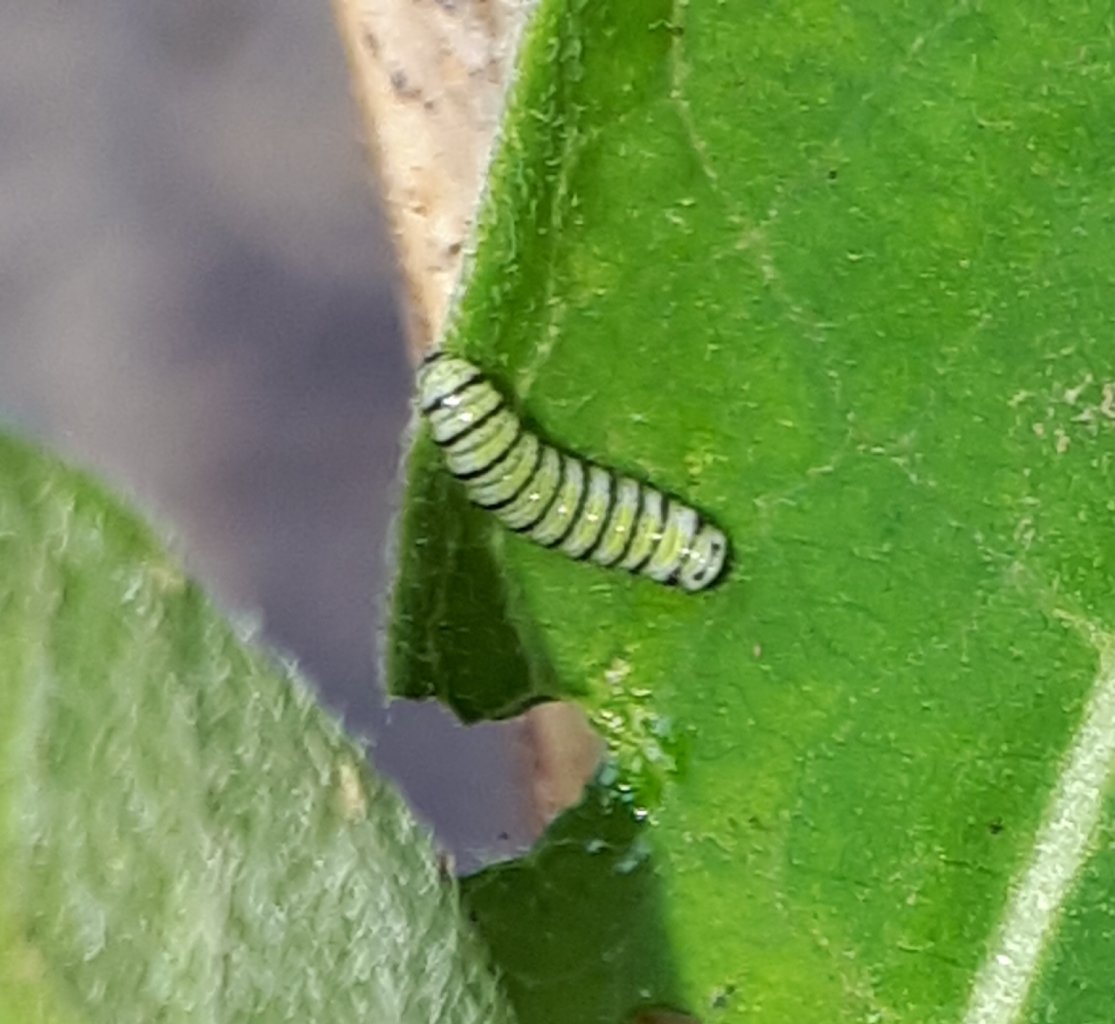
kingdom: Animalia
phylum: Arthropoda
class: Insecta
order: Lepidoptera
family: Nymphalidae
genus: Danaus
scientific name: Danaus plexippus
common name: Monarch
